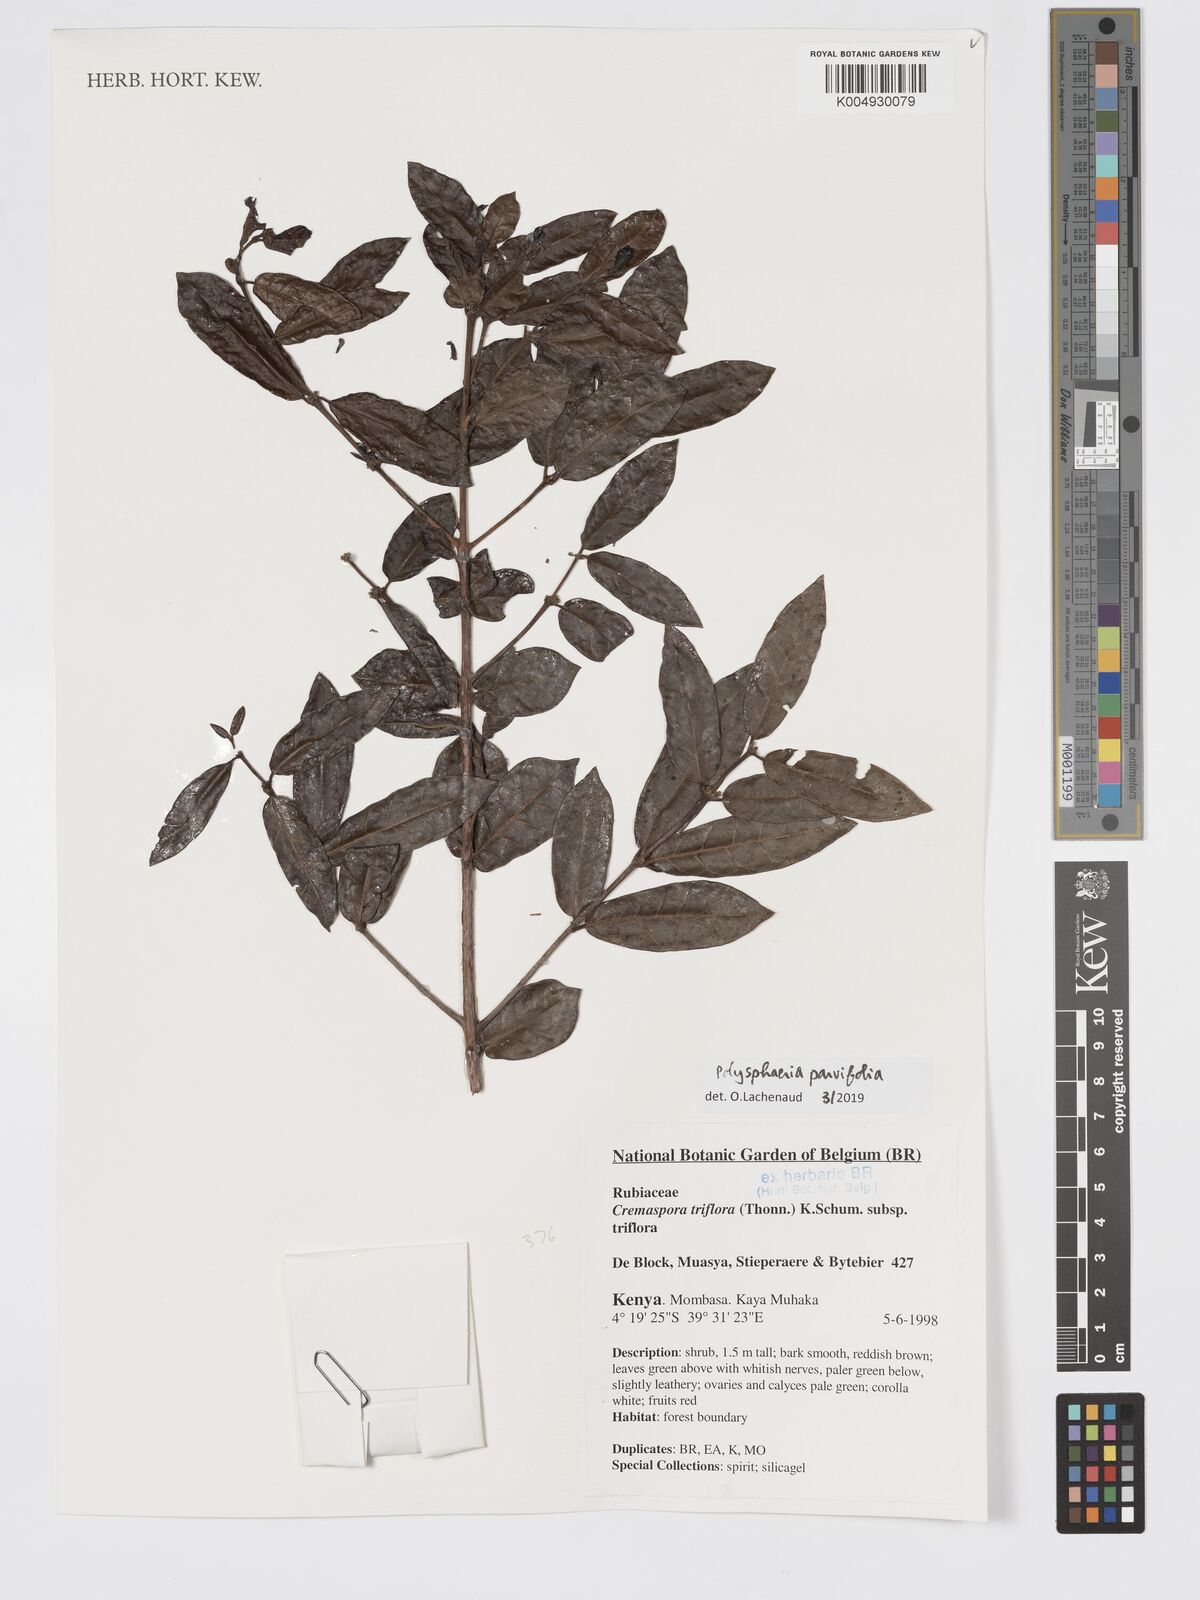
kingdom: Plantae
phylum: Tracheophyta
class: Magnoliopsida
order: Gentianales
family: Rubiaceae
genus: Polysphaeria
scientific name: Polysphaeria parvifolia
